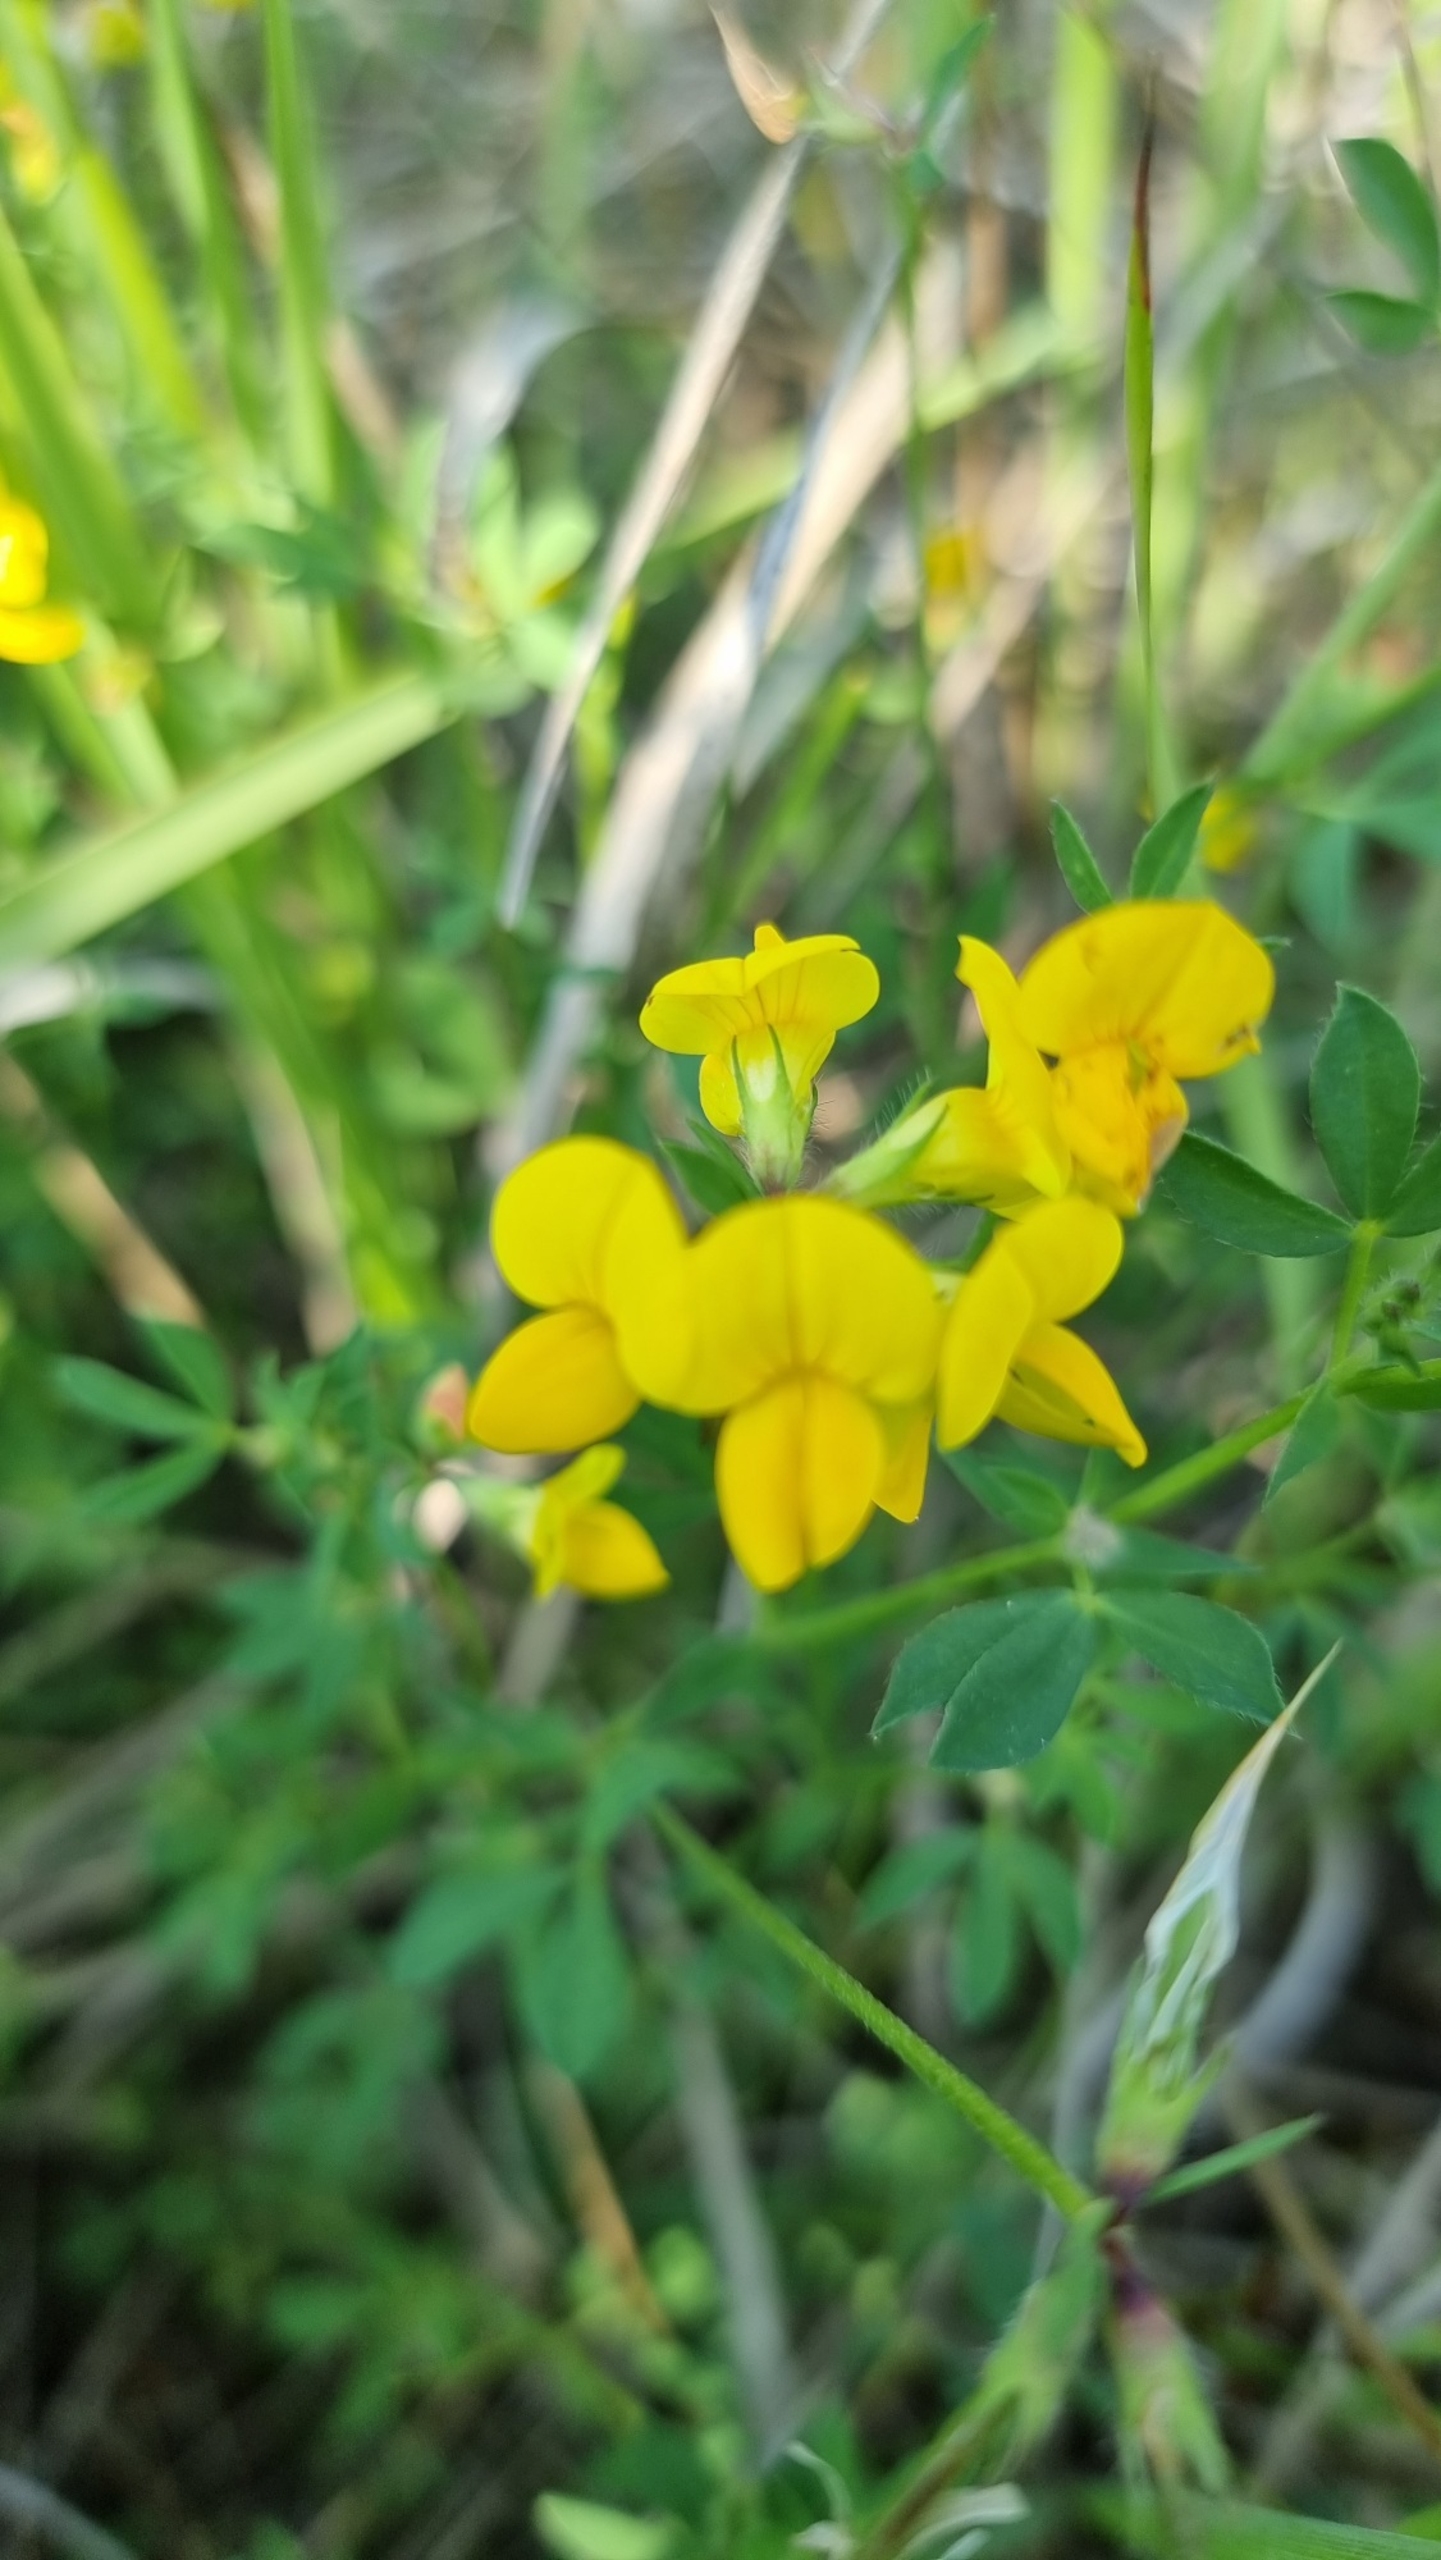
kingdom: Plantae
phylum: Tracheophyta
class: Magnoliopsida
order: Fabales
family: Fabaceae
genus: Lotus
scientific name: Lotus corniculatus
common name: Almindelig kællingetand
